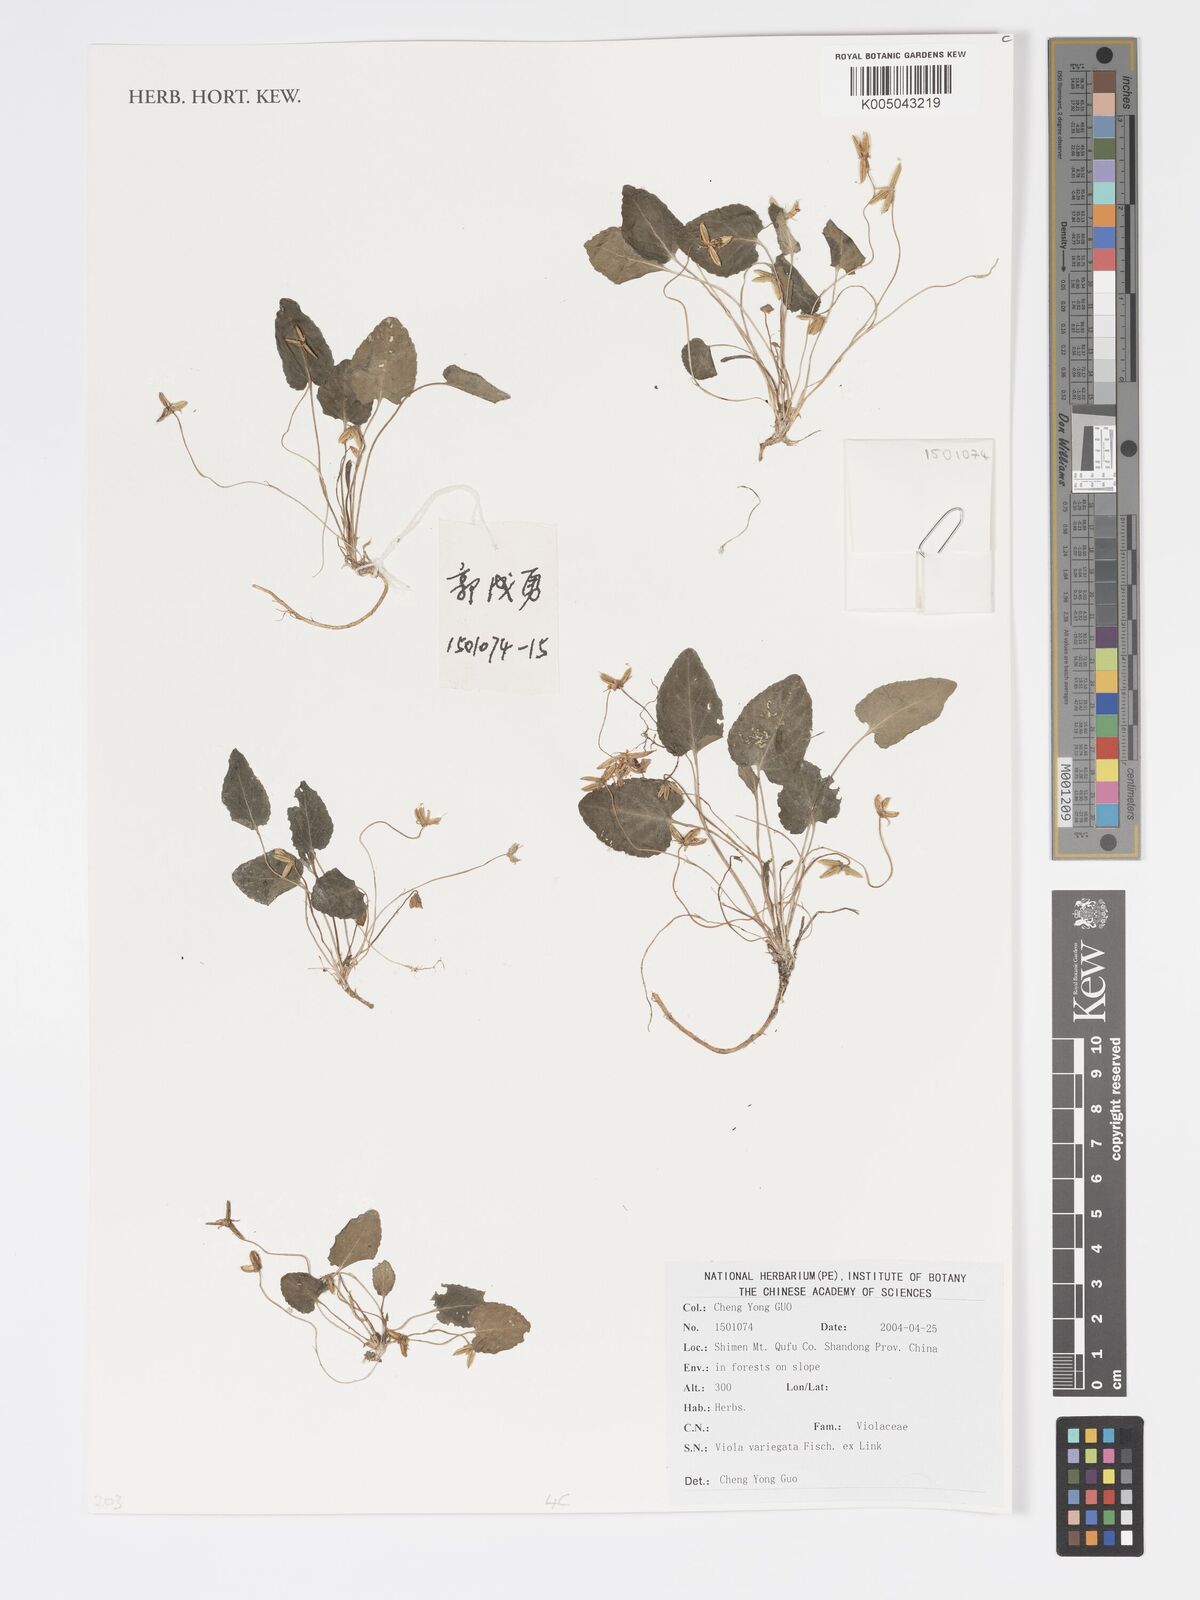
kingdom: Plantae
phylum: Tracheophyta
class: Magnoliopsida
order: Malpighiales
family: Violaceae
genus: Viola
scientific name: Viola vaginata
